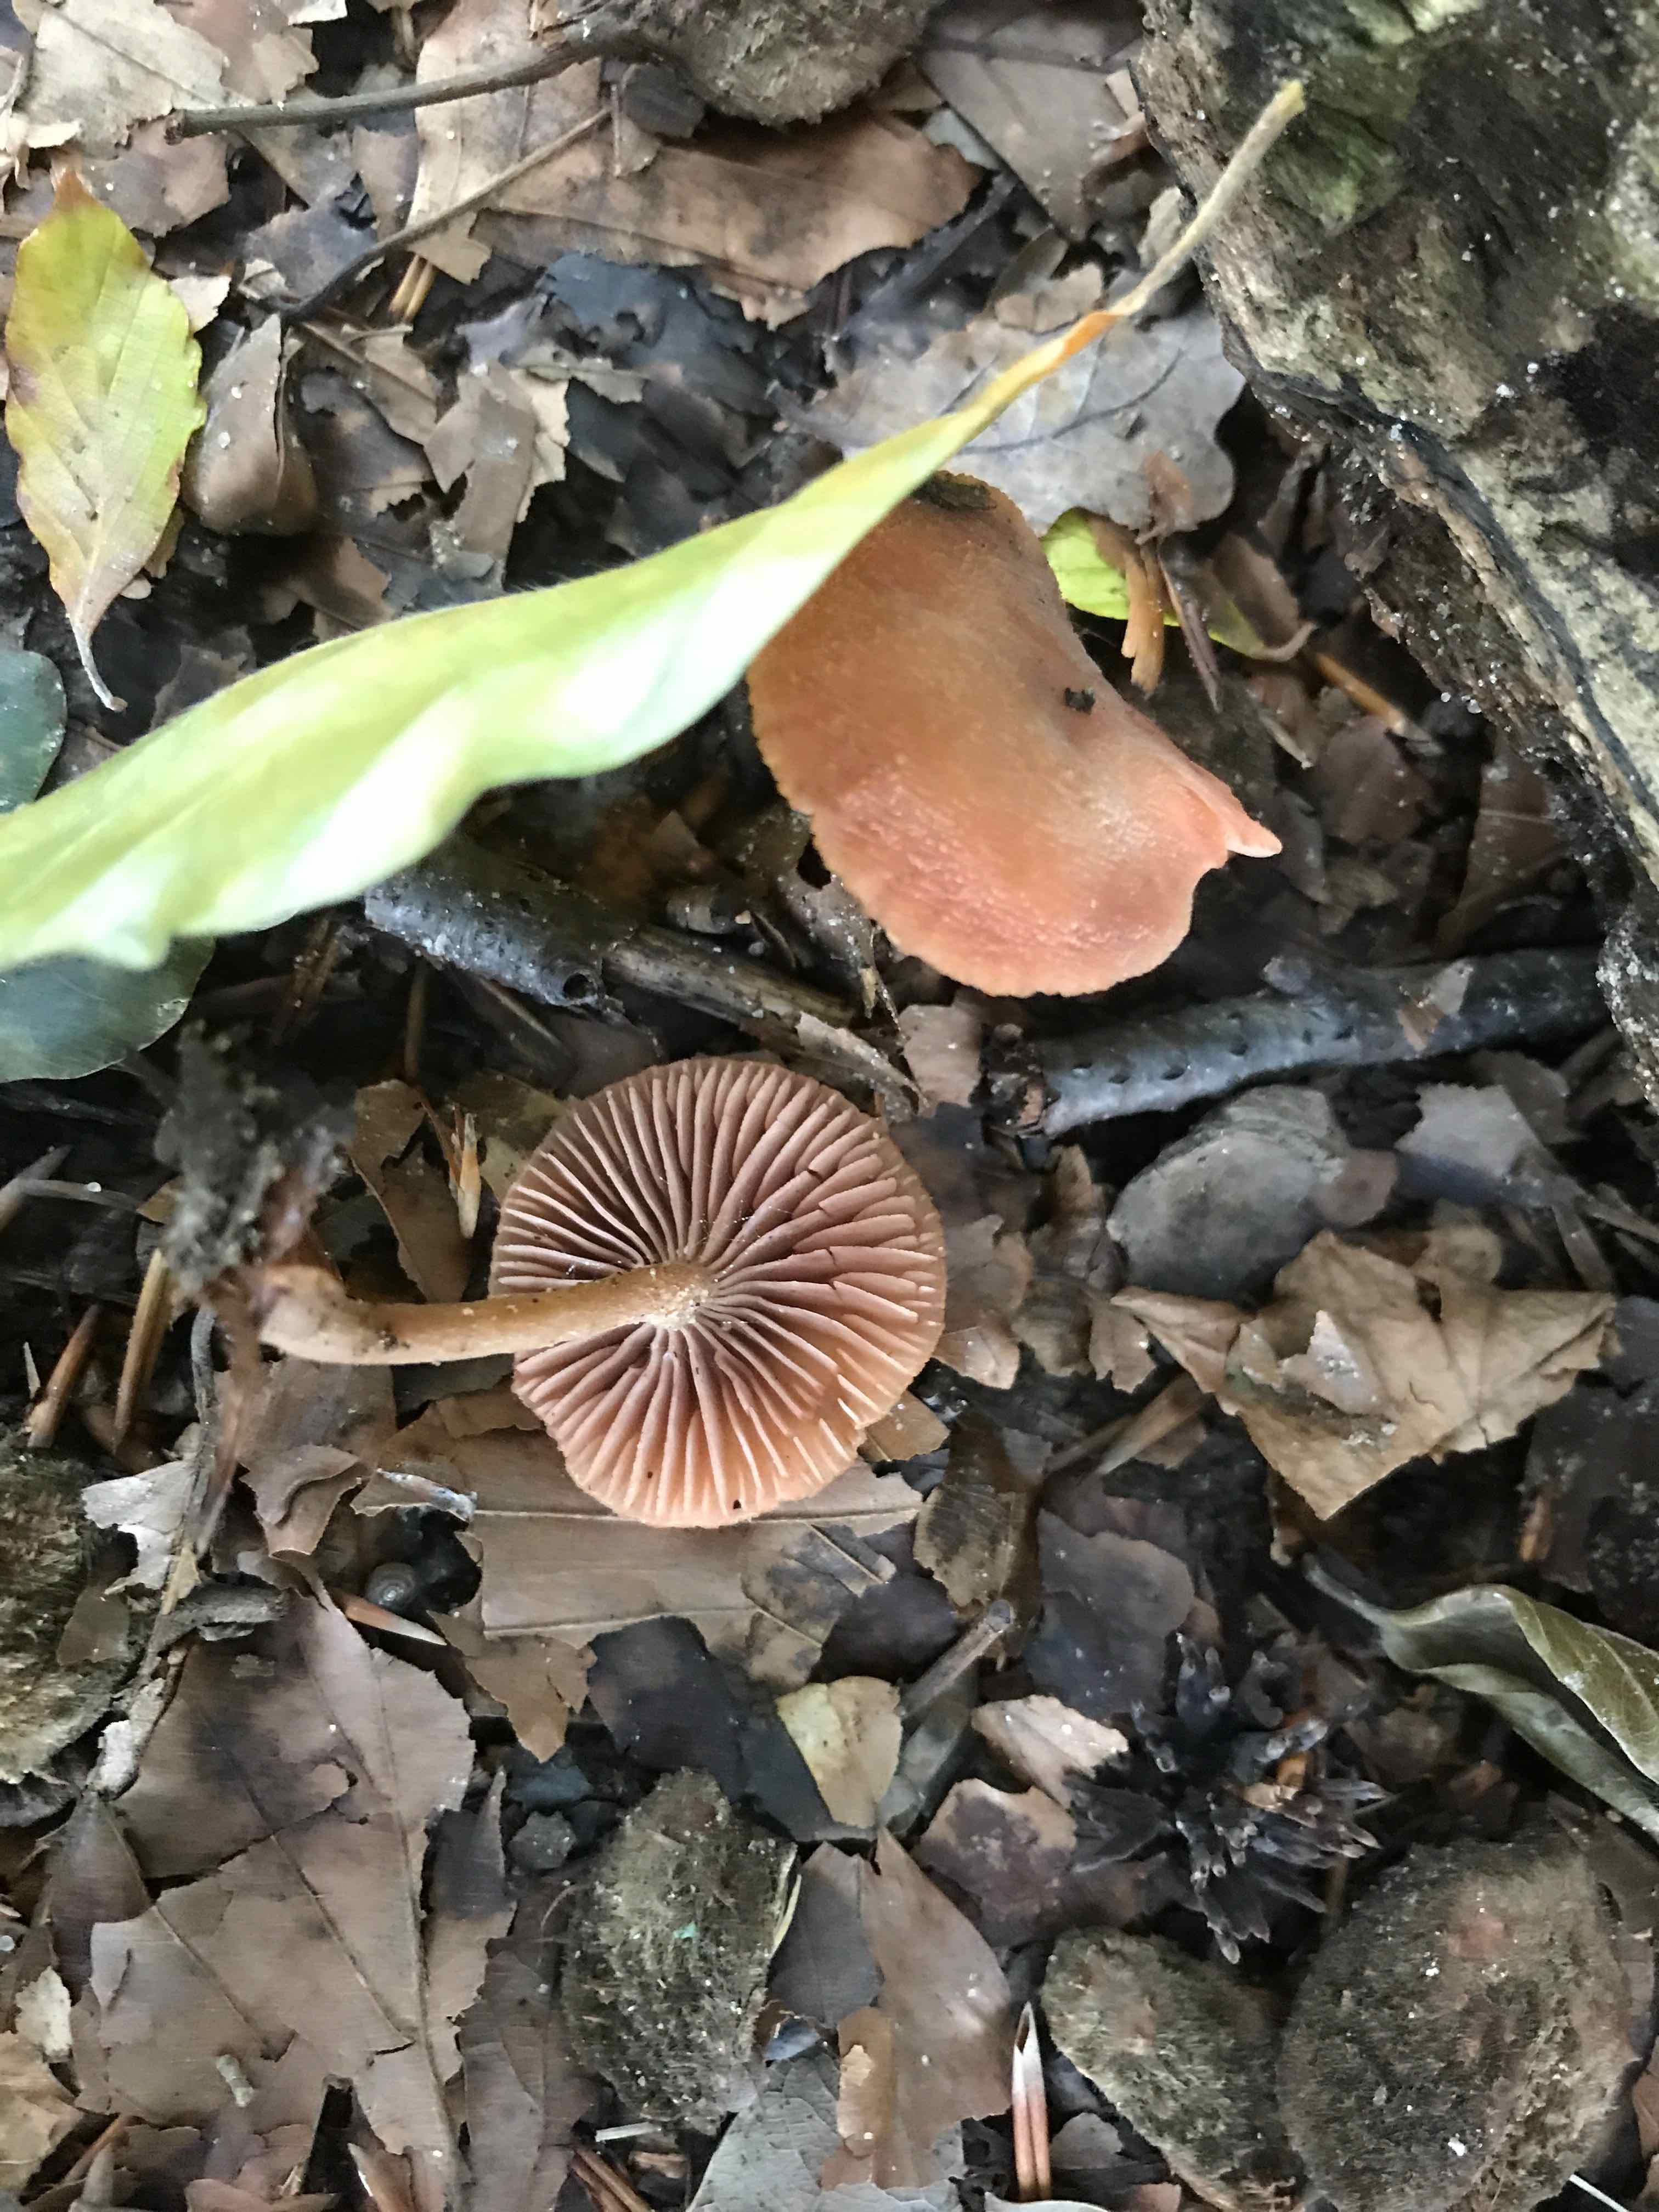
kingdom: Fungi
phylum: Basidiomycota
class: Agaricomycetes
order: Agaricales
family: Hydnangiaceae
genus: Laccaria
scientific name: Laccaria laccata
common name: rød ametysthat
